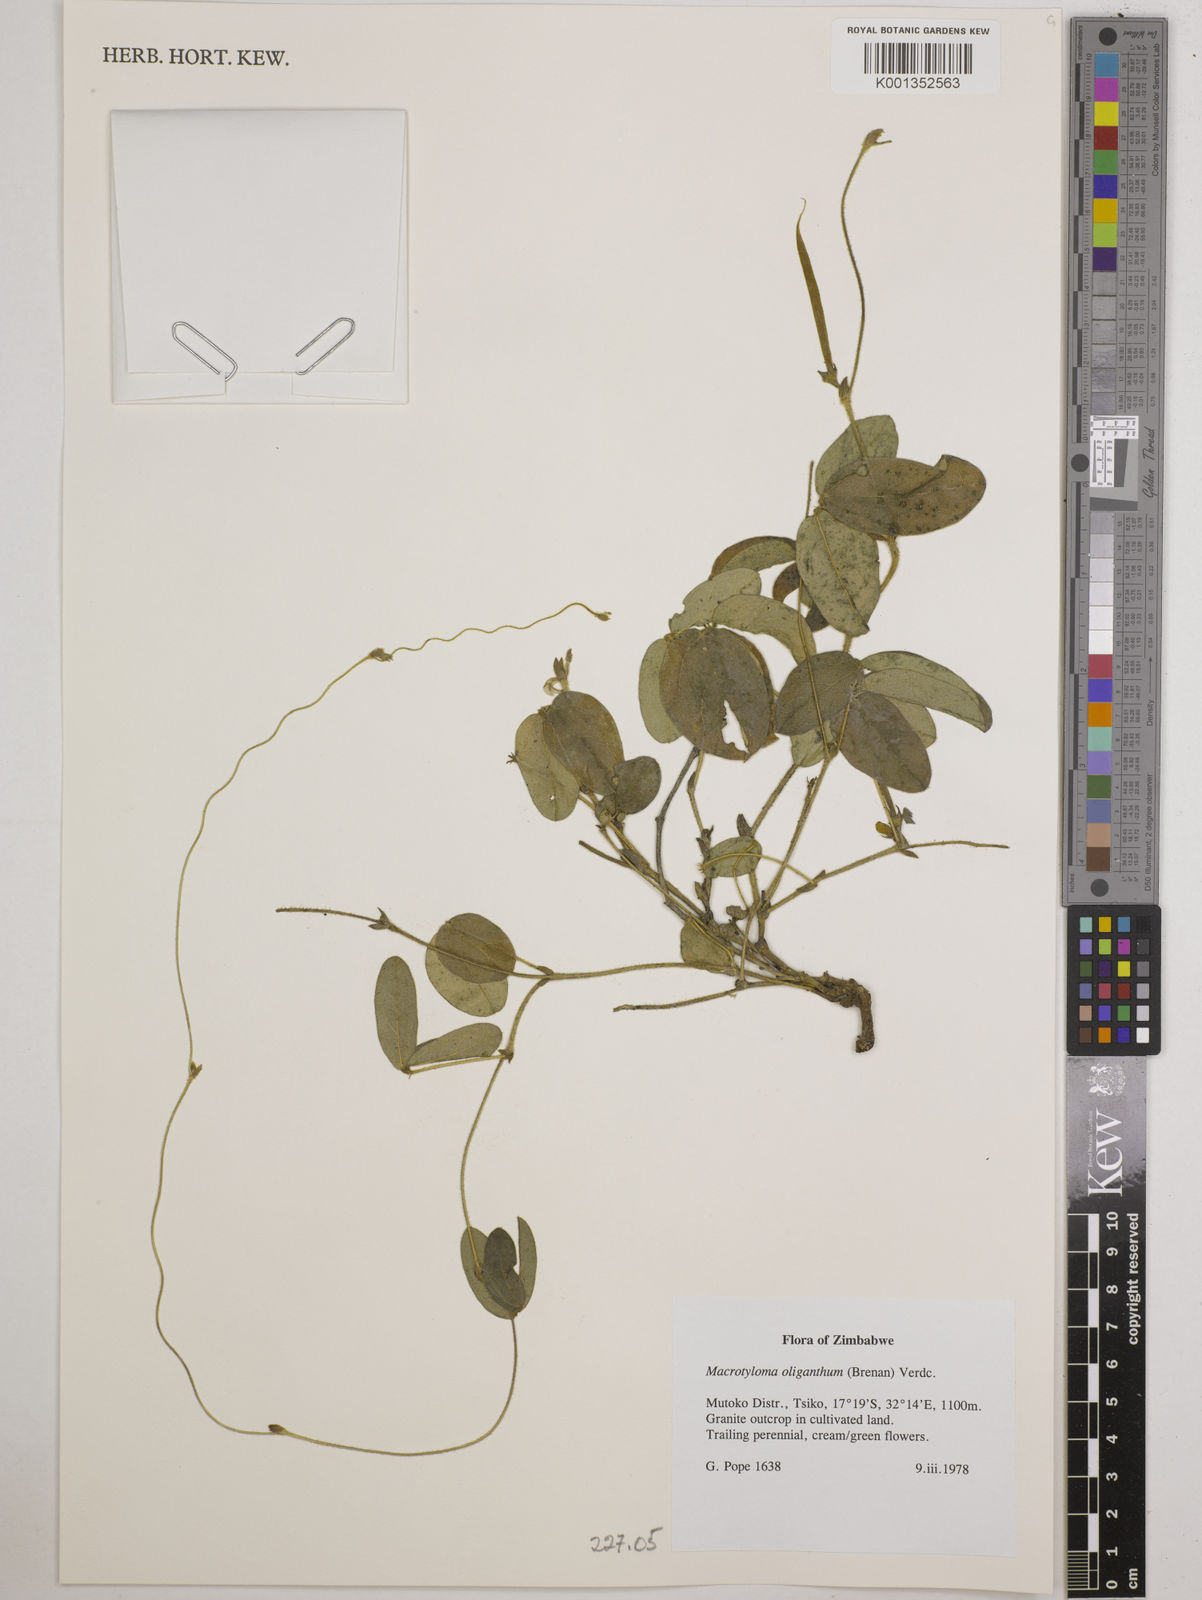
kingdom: Plantae
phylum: Tracheophyta
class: Magnoliopsida
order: Fabales
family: Fabaceae
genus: Macrotyloma
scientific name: Macrotyloma oliganthum
